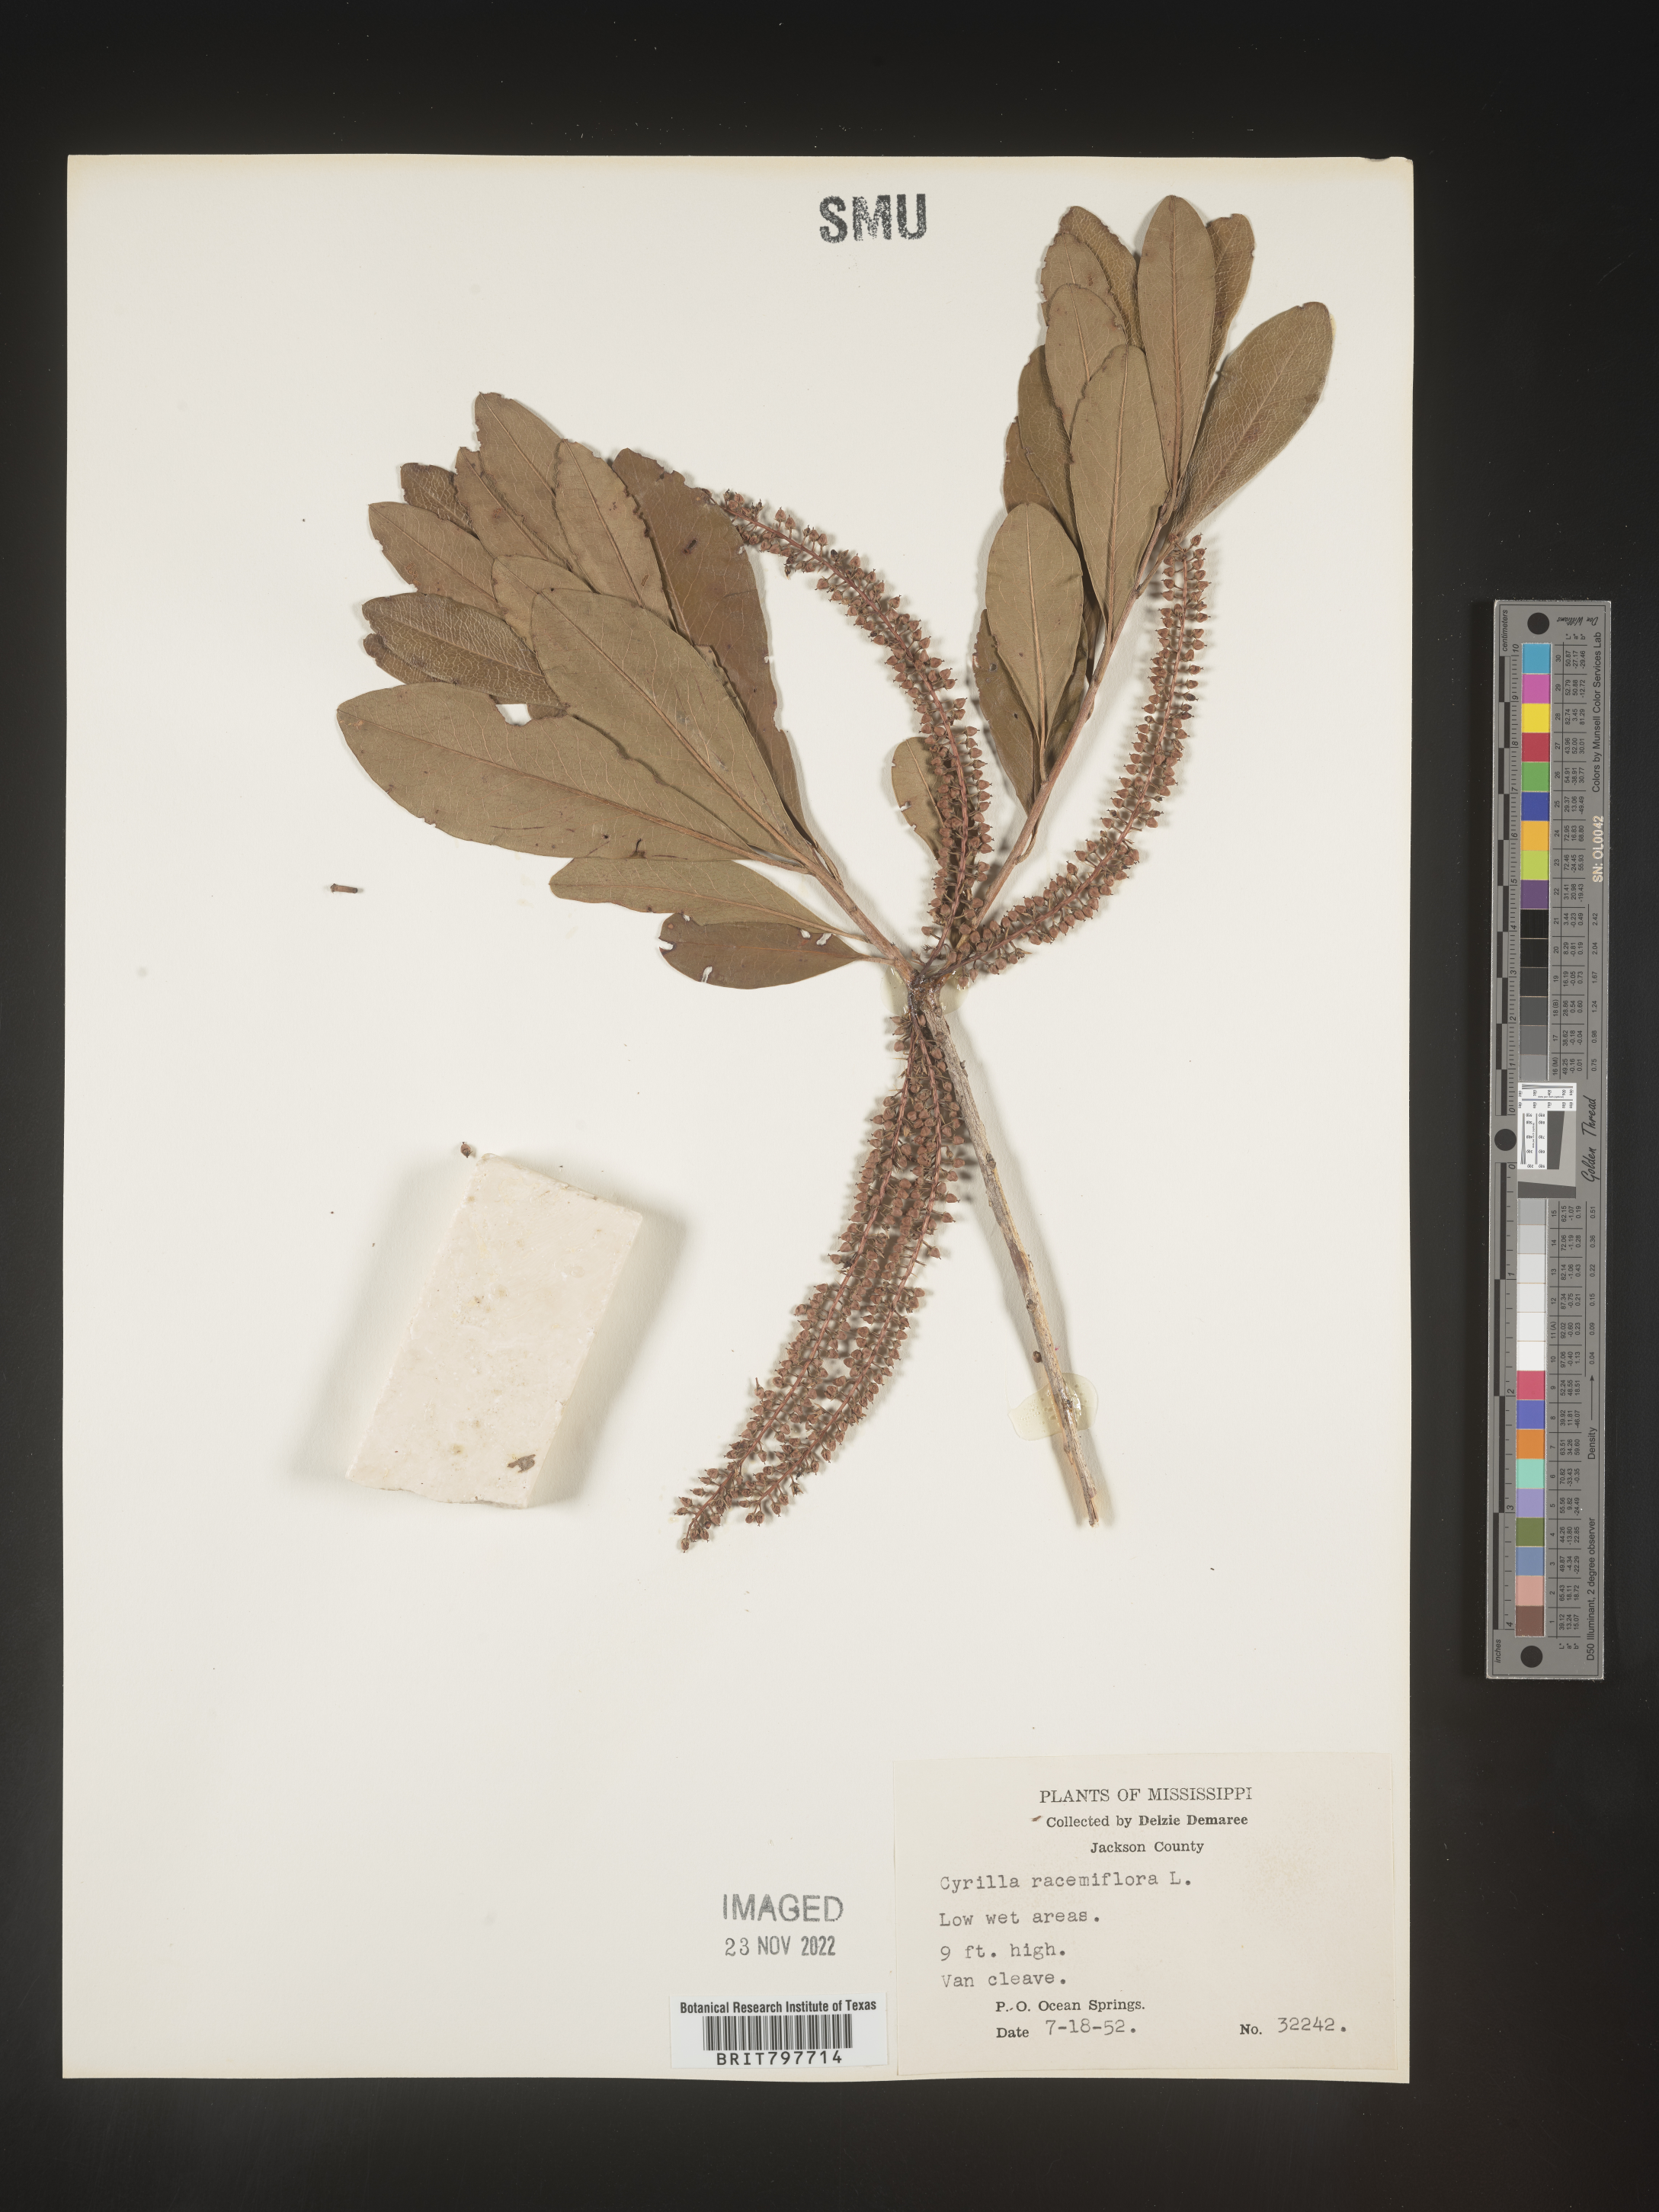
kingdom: Plantae
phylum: Tracheophyta
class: Magnoliopsida
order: Ericales
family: Cyrillaceae
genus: Cyrilla
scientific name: Cyrilla racemiflora
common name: Black titi
